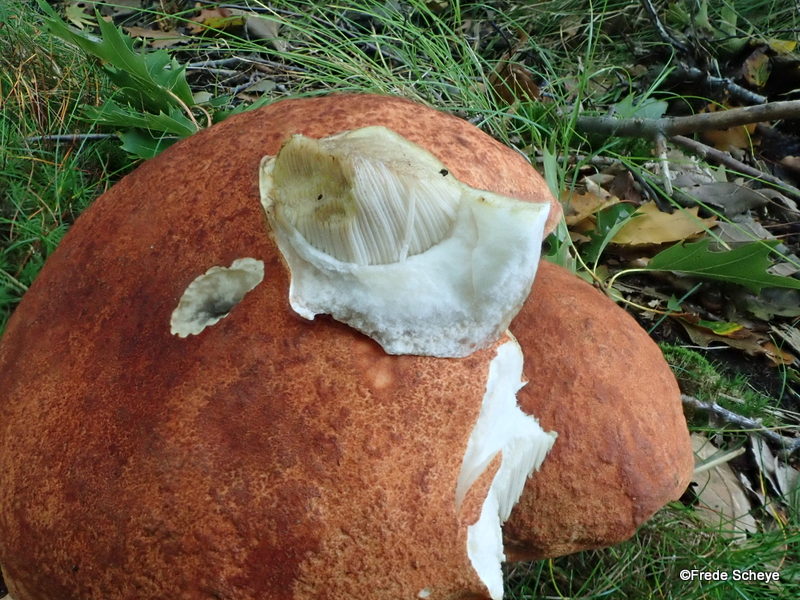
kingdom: Fungi
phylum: Basidiomycota
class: Agaricomycetes
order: Boletales
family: Boletaceae
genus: Leccinum
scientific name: Leccinum aurantiacum
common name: rustrød skælrørhat
